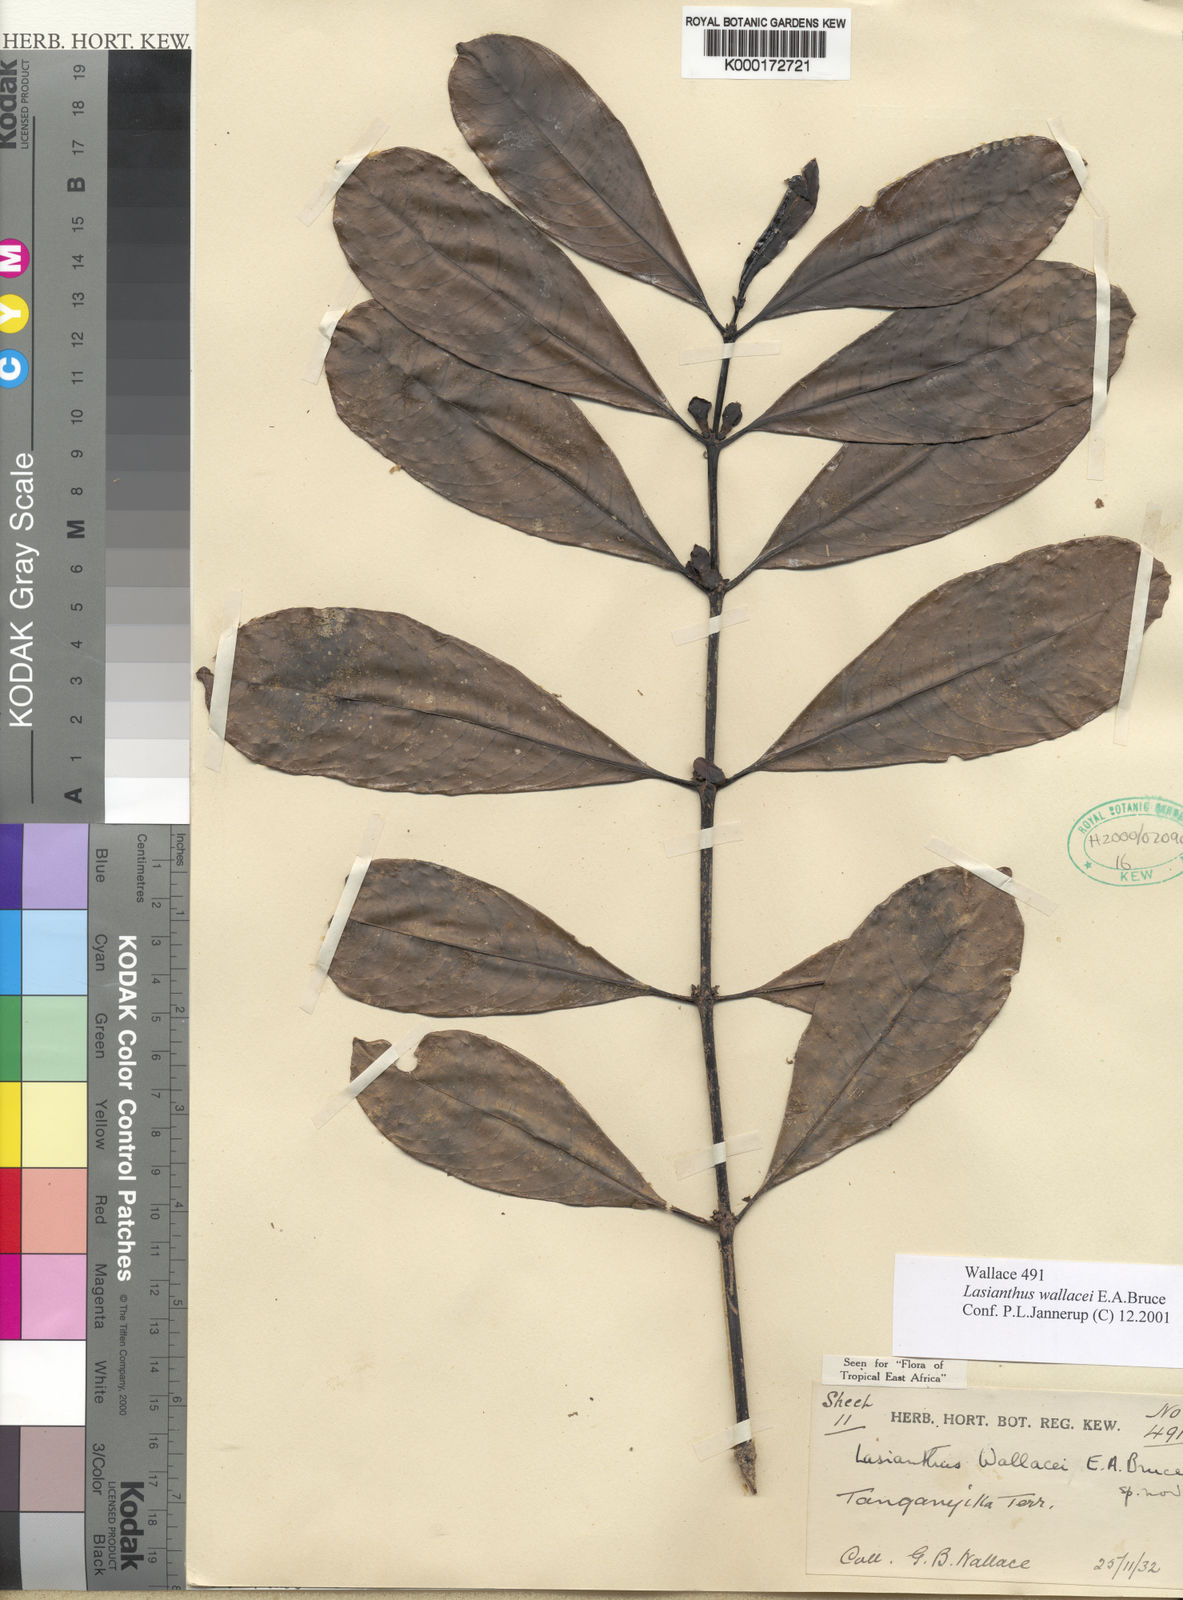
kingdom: Plantae
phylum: Tracheophyta
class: Magnoliopsida
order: Gentianales
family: Rubiaceae
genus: Lasianthus
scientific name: Lasianthus wallacei
